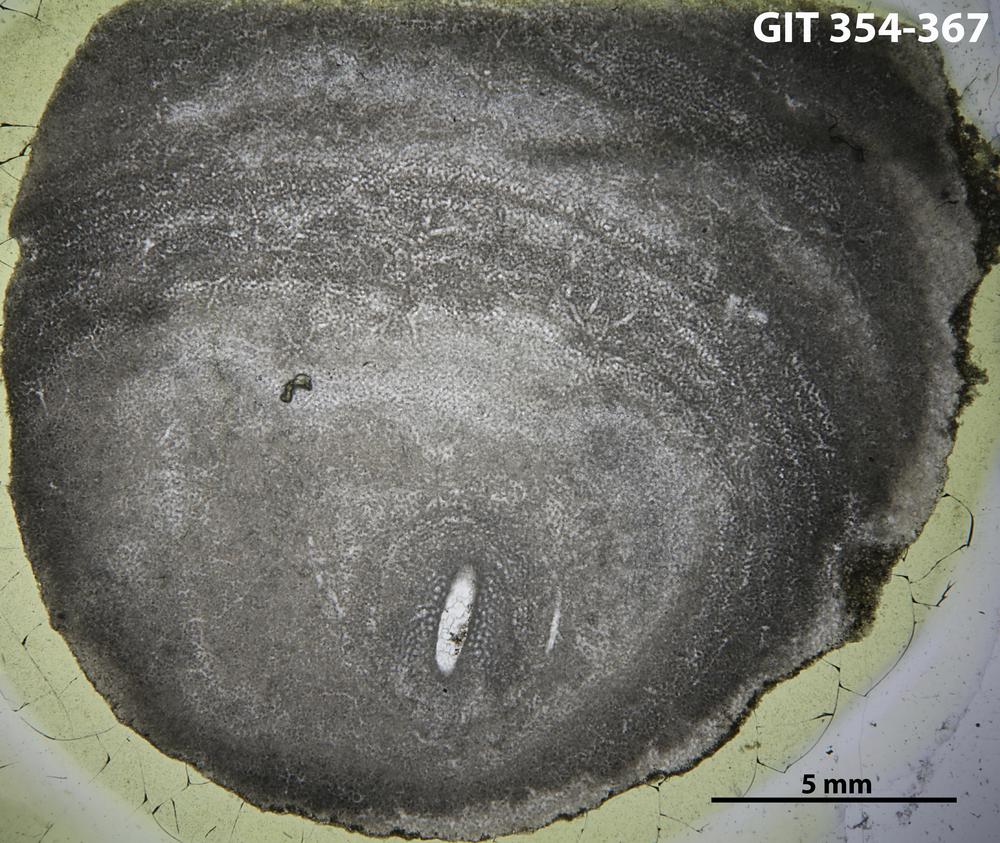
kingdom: Animalia
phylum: Porifera
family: Clathrodictyidae
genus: Clathrodictyon
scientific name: Clathrodictyon boreale
